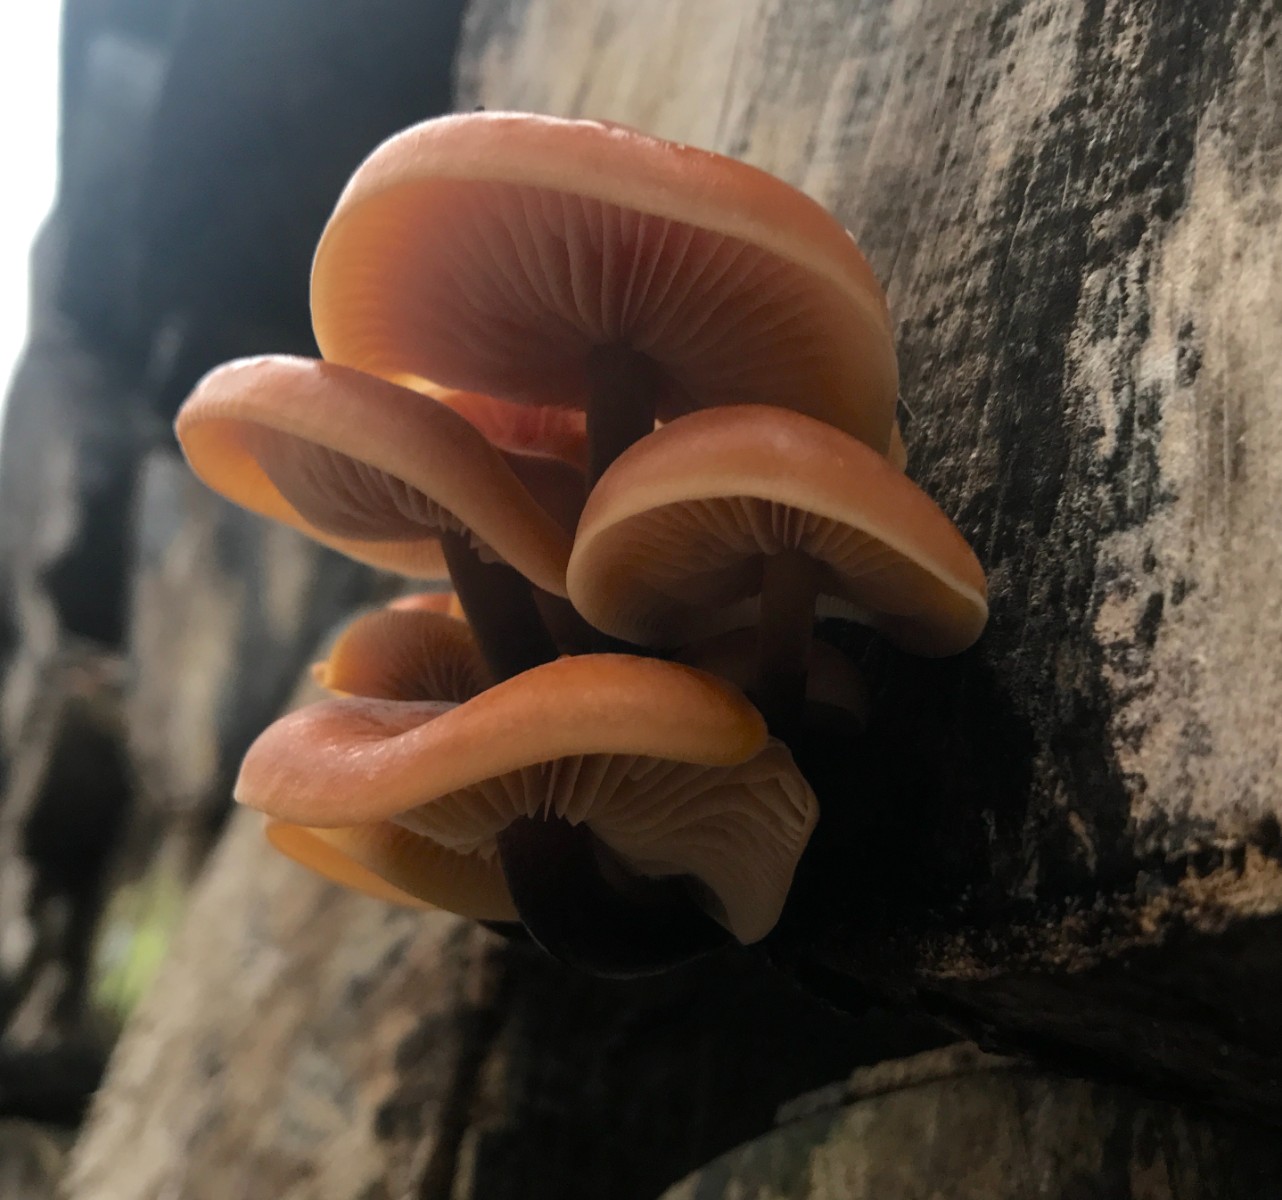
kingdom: Fungi
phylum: Basidiomycota
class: Agaricomycetes
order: Agaricales
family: Physalacriaceae
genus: Flammulina
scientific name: Flammulina velutipes
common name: gul fløjlsfod
